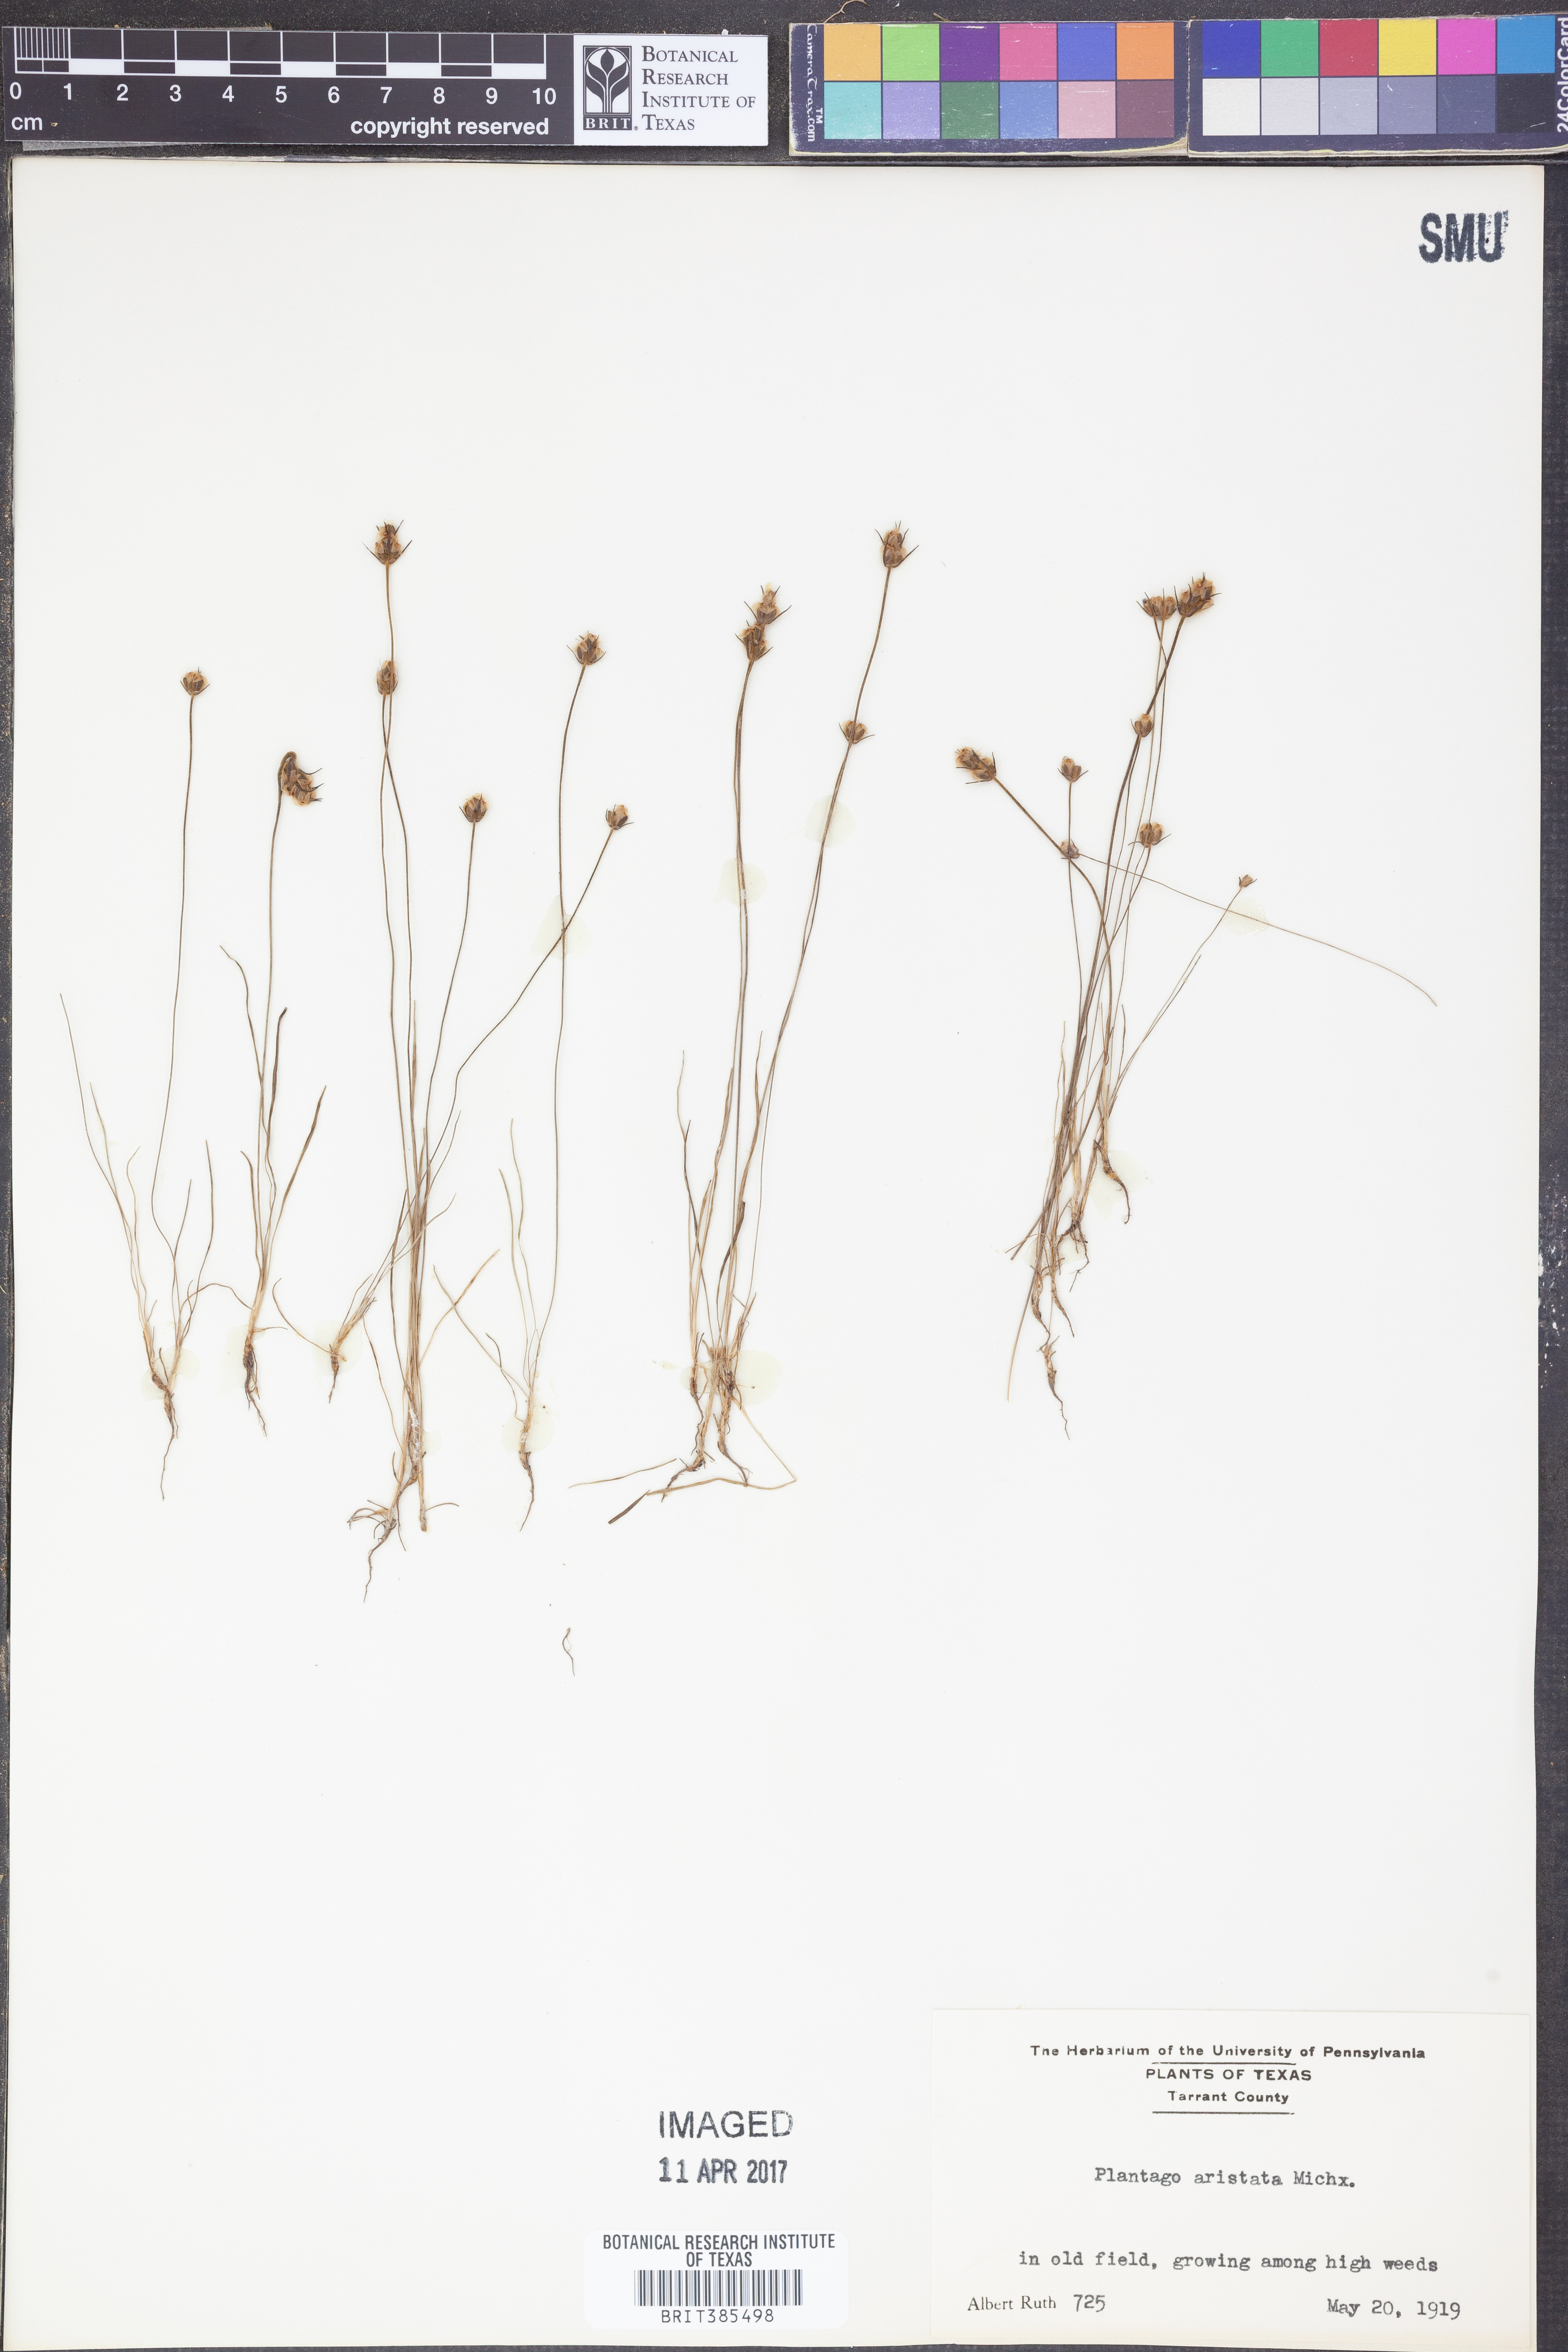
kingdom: Plantae
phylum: Tracheophyta
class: Magnoliopsida
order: Lamiales
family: Plantaginaceae
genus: Plantago
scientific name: Plantago aristata
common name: Bracted plantain
